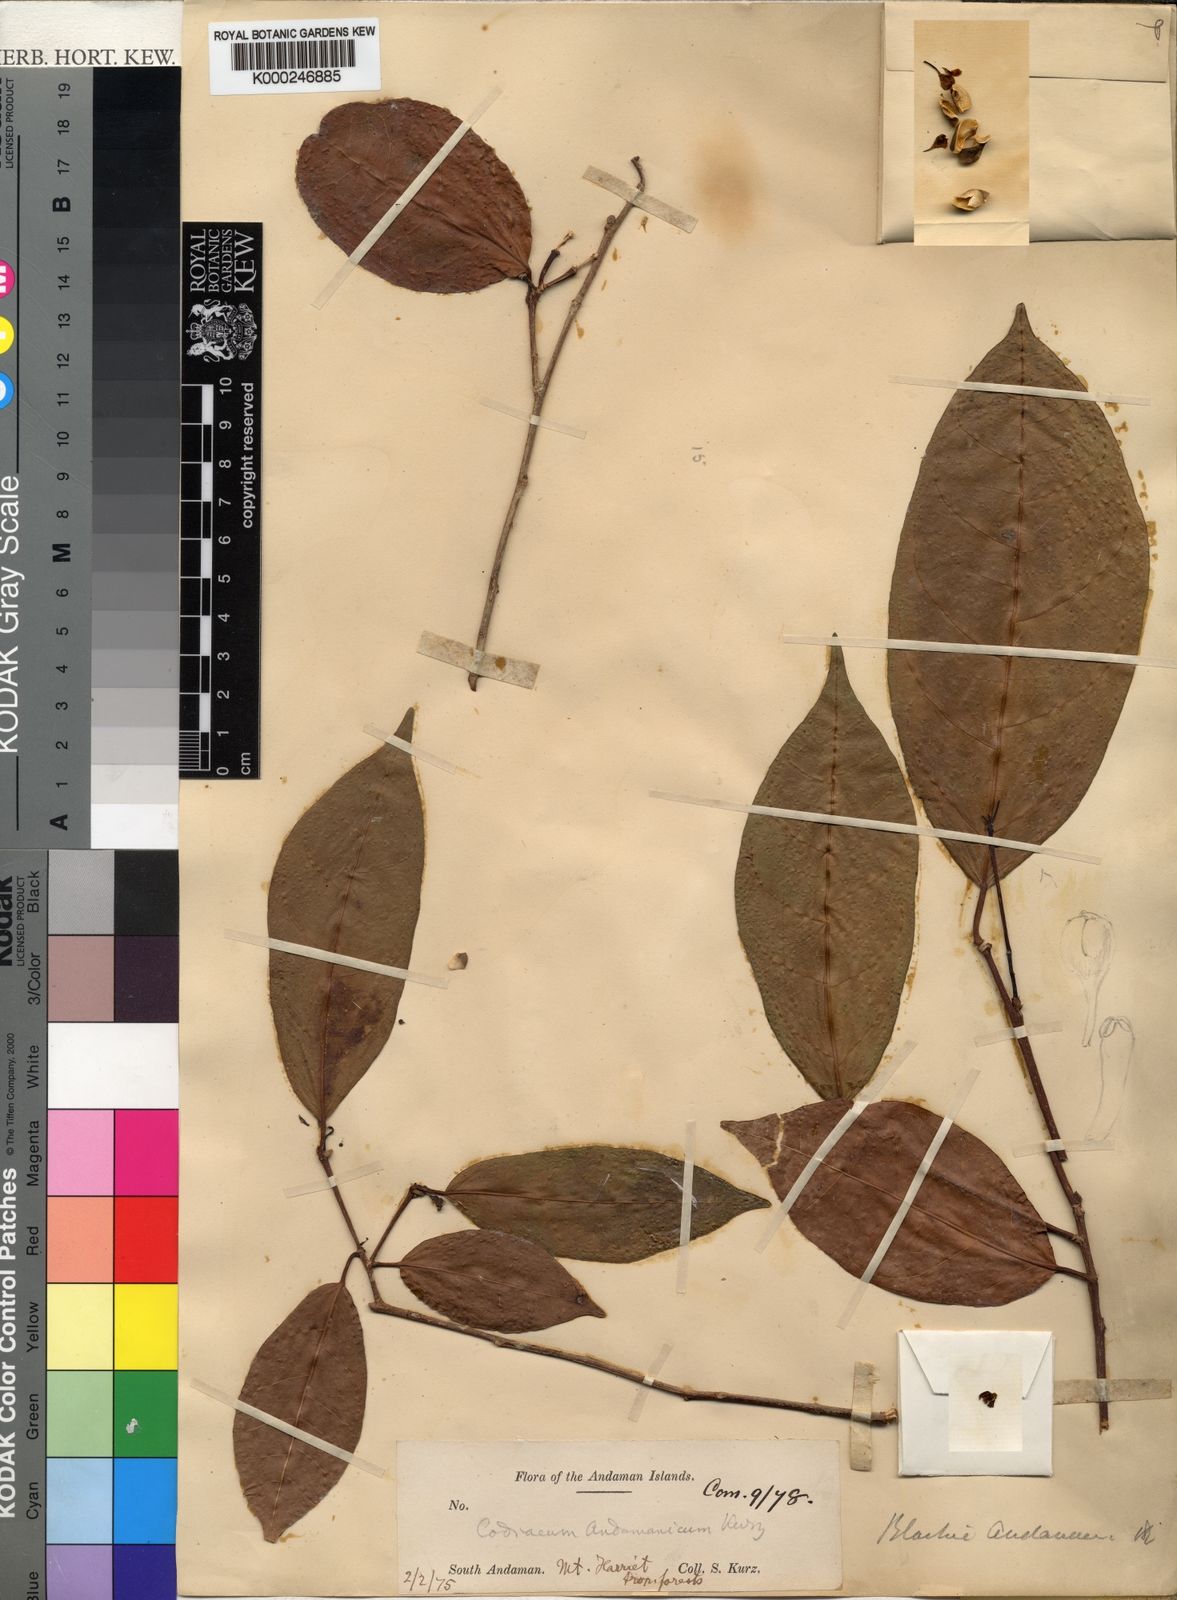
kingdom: Plantae
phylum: Tracheophyta
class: Magnoliopsida
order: Malpighiales
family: Euphorbiaceae
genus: Blachia
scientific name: Blachia andamanica
